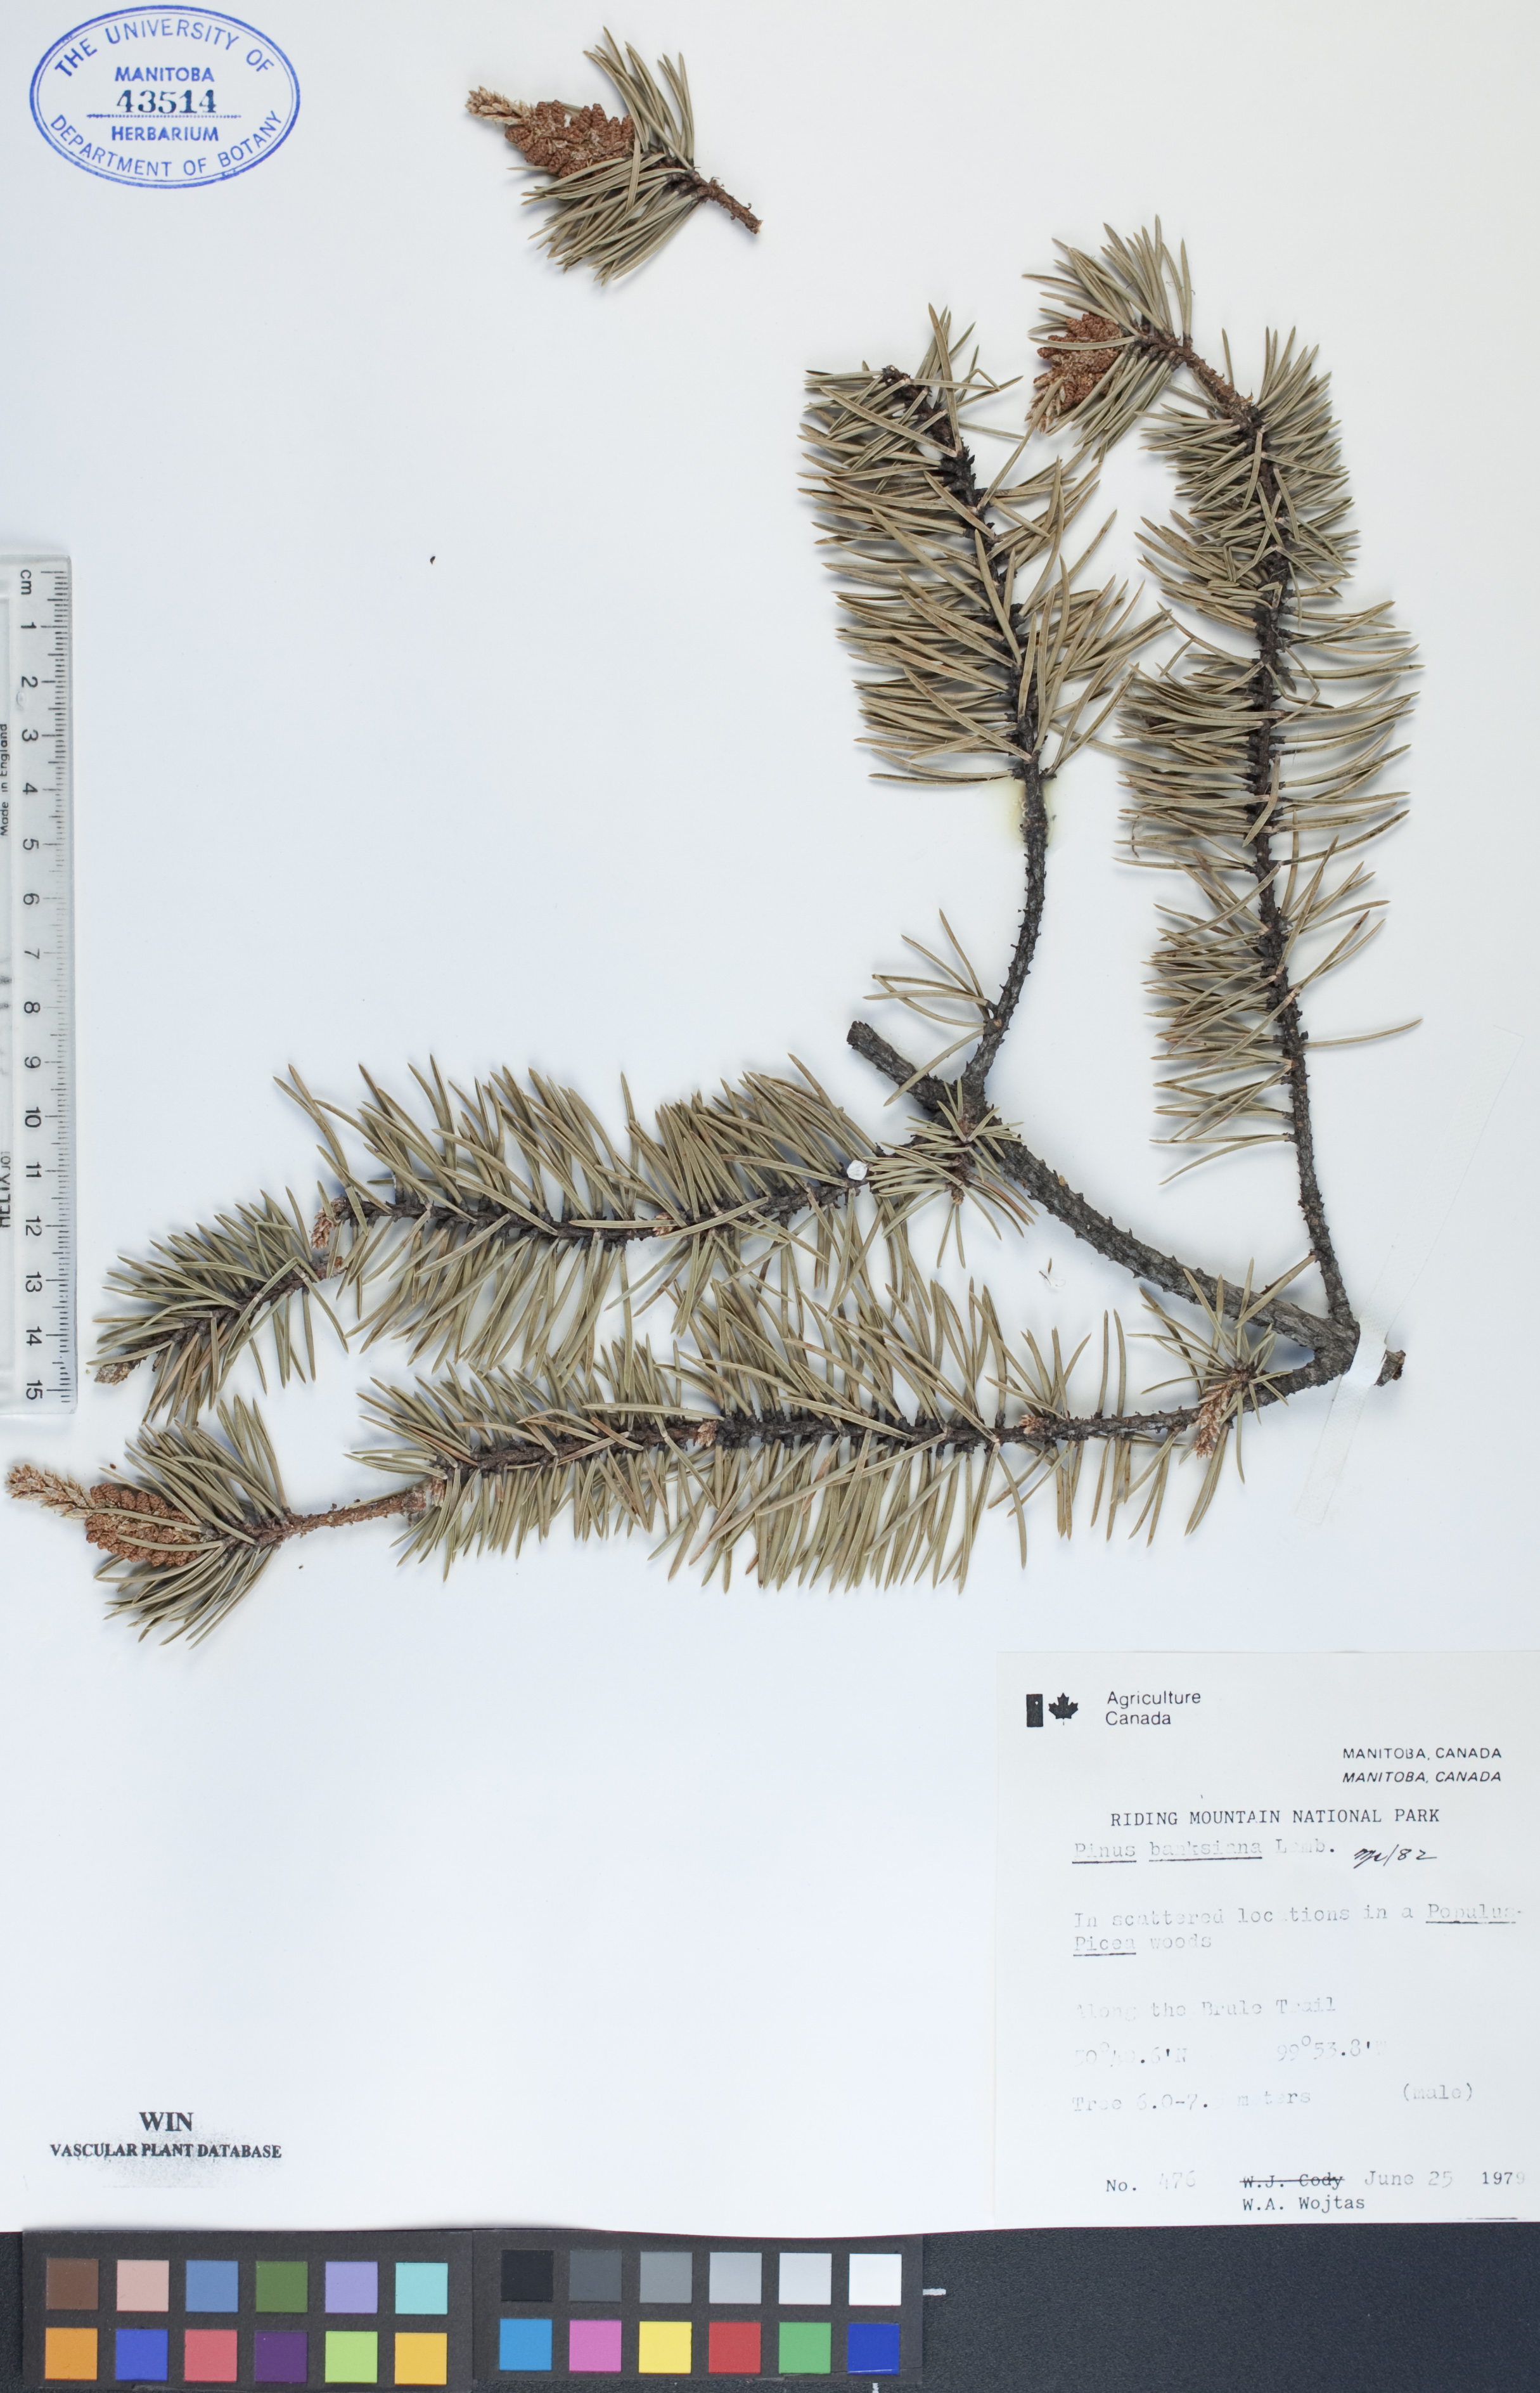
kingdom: Plantae
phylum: Tracheophyta
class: Pinopsida
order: Pinales
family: Pinaceae
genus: Pinus
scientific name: Pinus banksiana
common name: Jack pine
